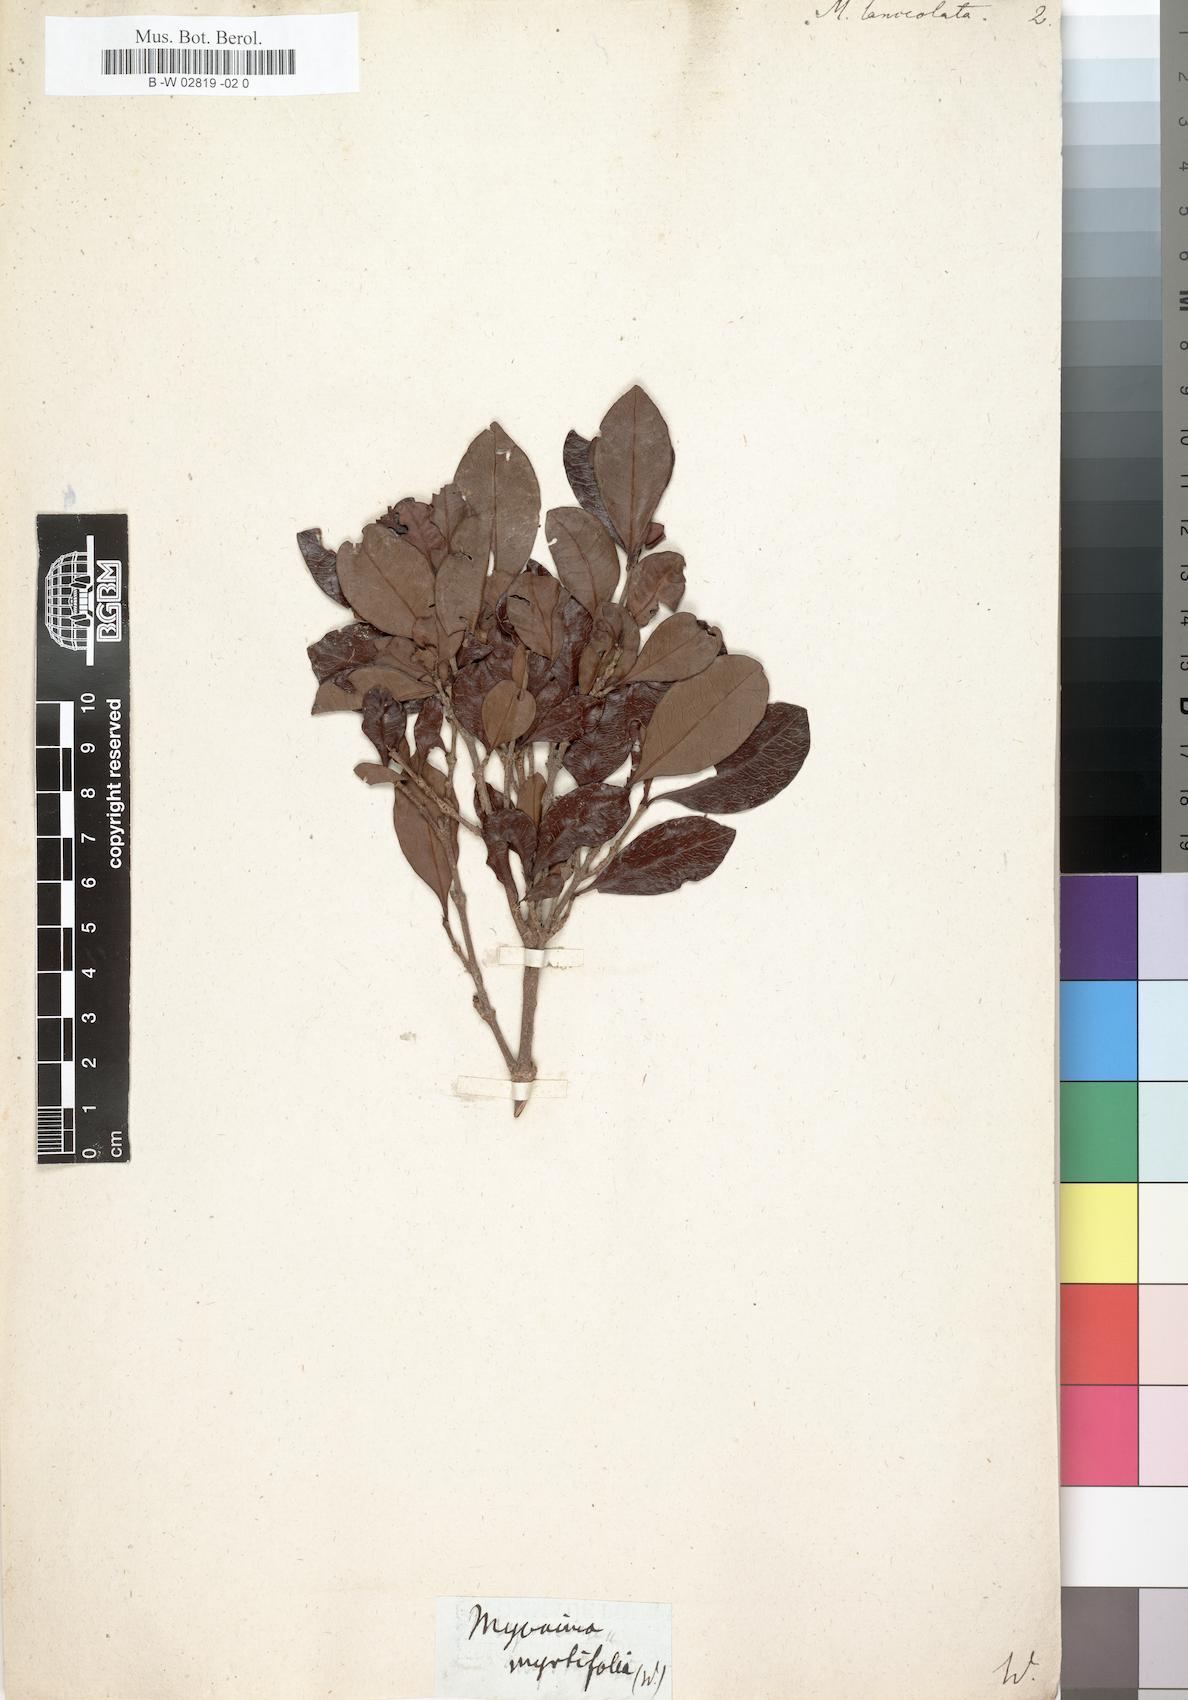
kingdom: Plantae
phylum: Tracheophyta
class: Magnoliopsida
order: Gentianales
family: Rubiaceae
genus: Ixora
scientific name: Ixora borboniae
